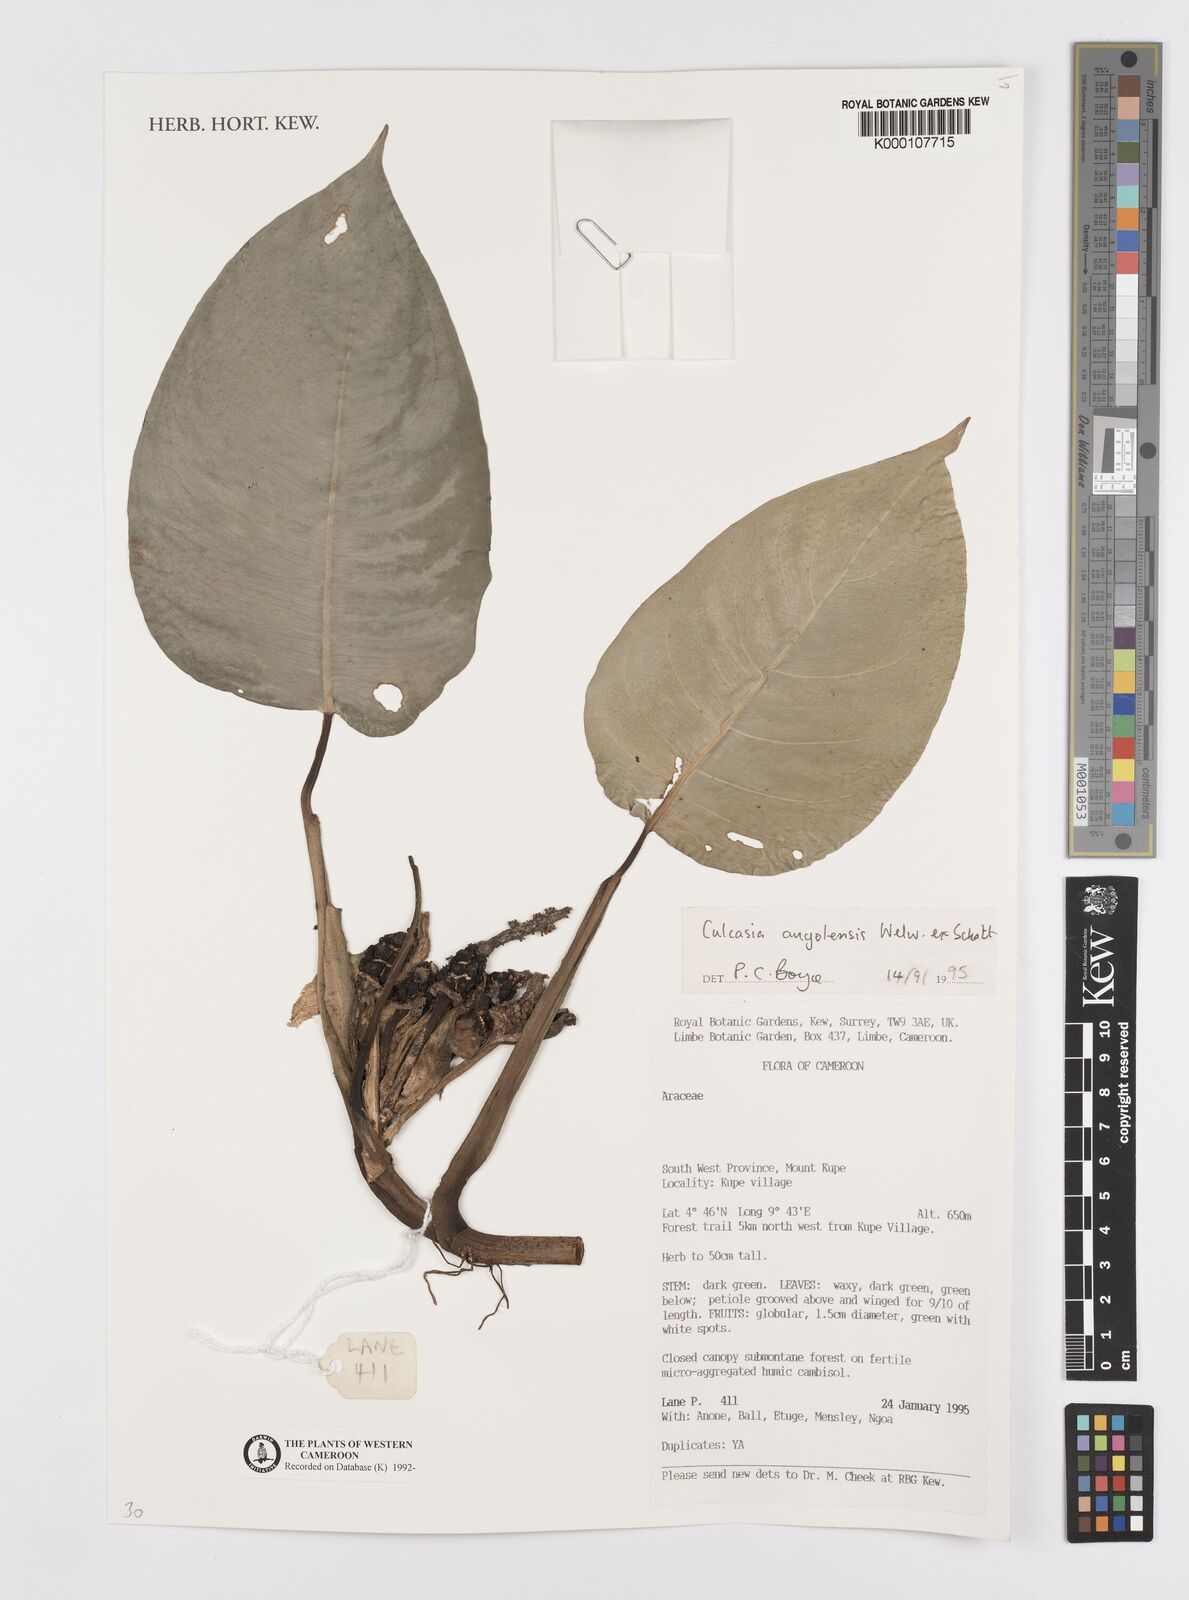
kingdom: Plantae
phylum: Tracheophyta
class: Liliopsida
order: Alismatales
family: Araceae
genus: Culcasia
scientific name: Culcasia angolensis
